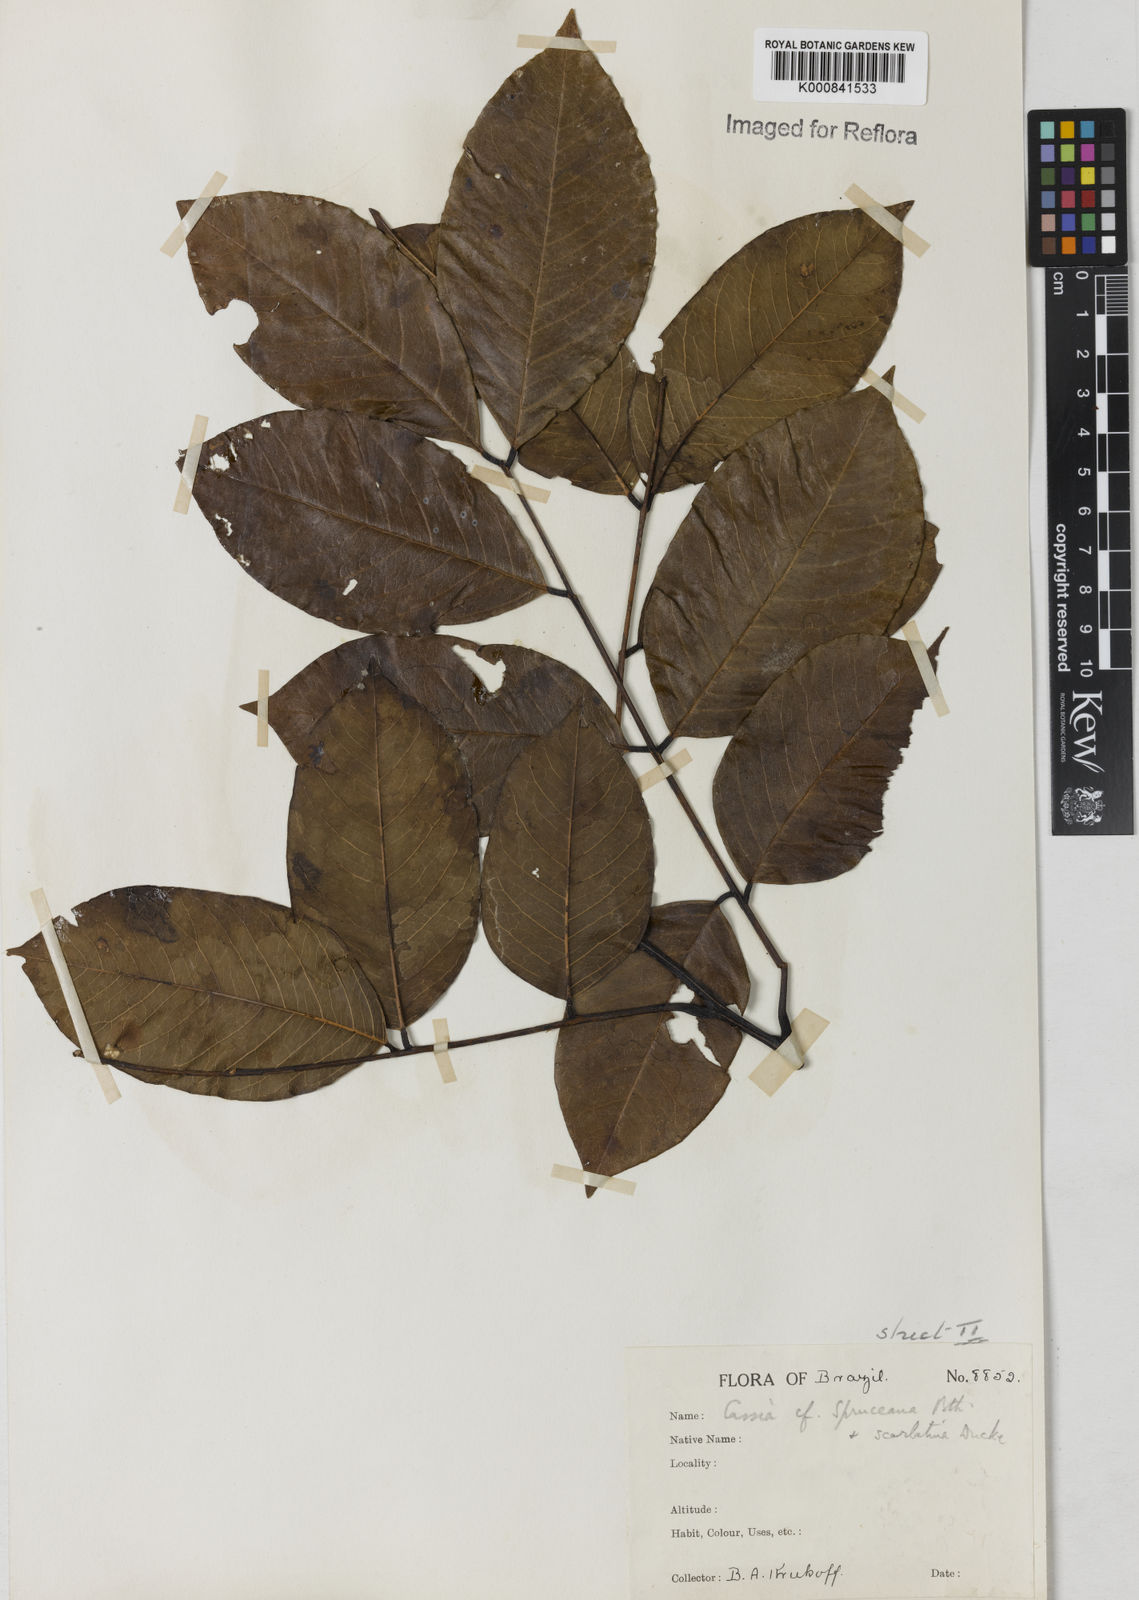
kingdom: Plantae
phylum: Tracheophyta
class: Magnoliopsida
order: Fabales
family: Fabaceae
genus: Cassia
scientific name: Cassia spruceana
